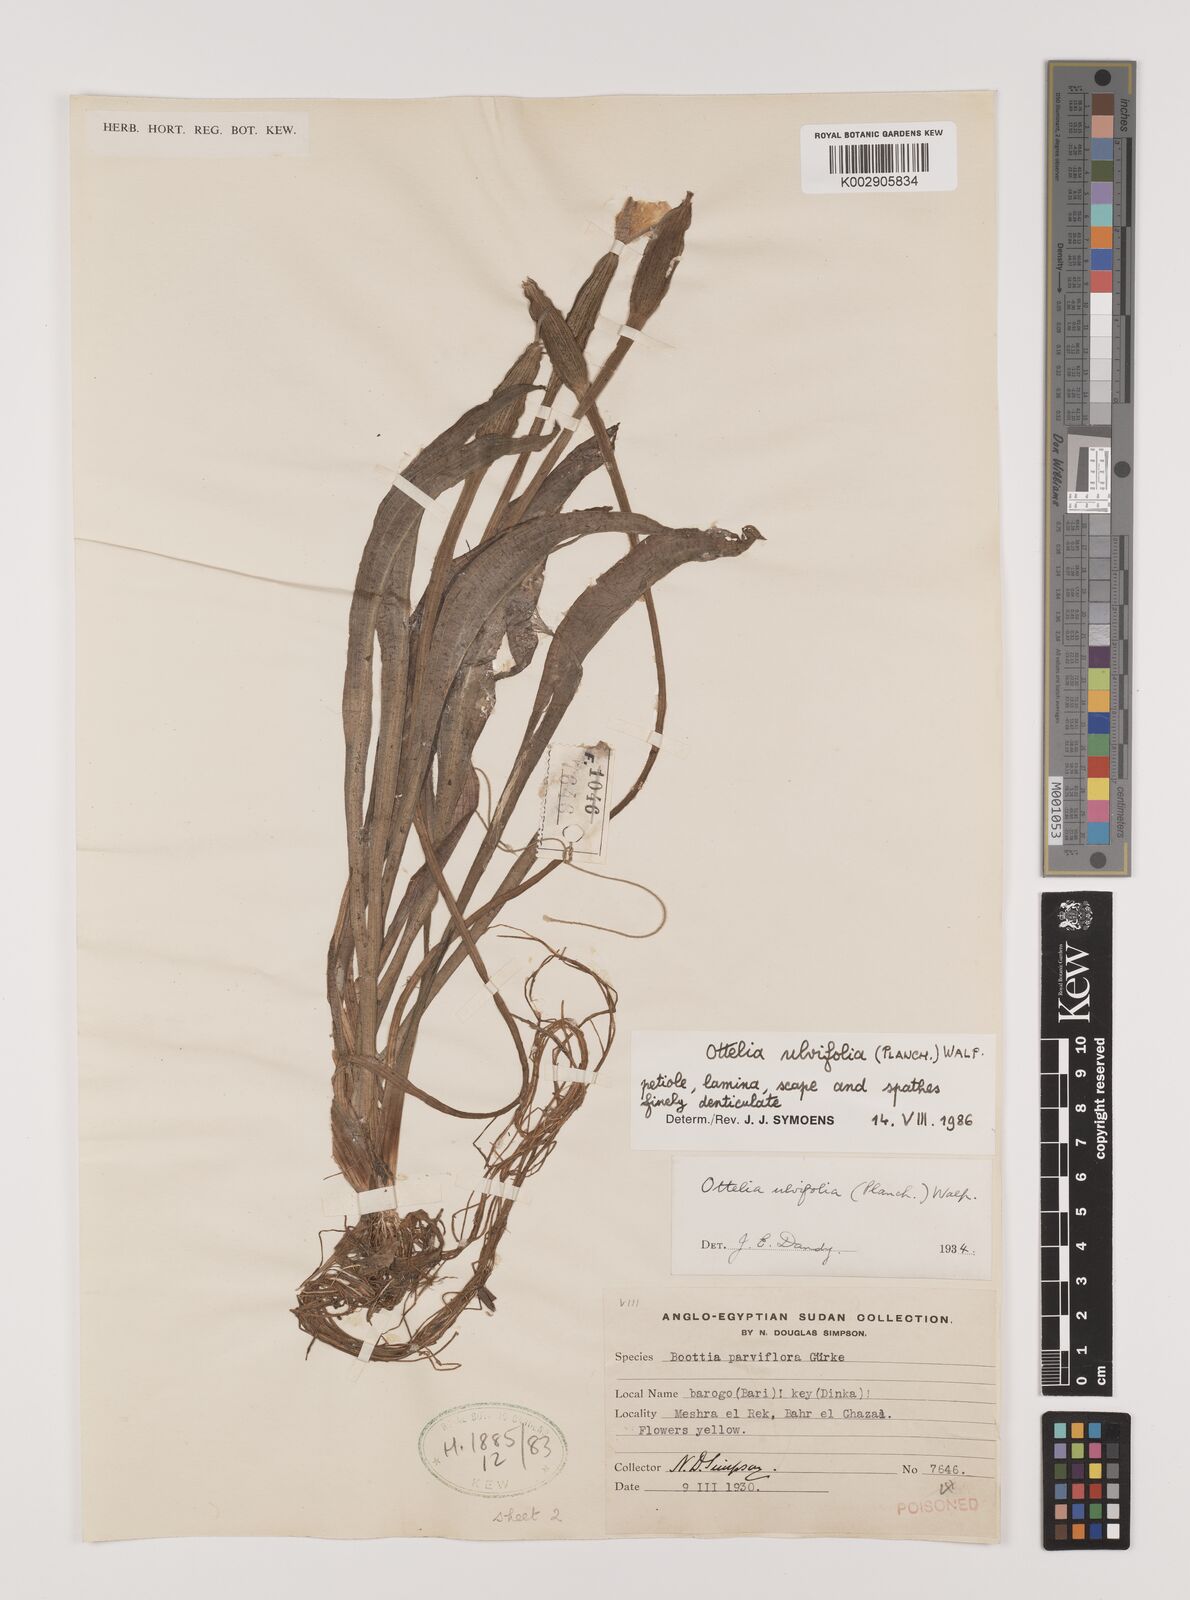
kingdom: Plantae
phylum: Tracheophyta
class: Liliopsida
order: Alismatales
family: Hydrocharitaceae
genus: Ottelia
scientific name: Ottelia ulvifolia
